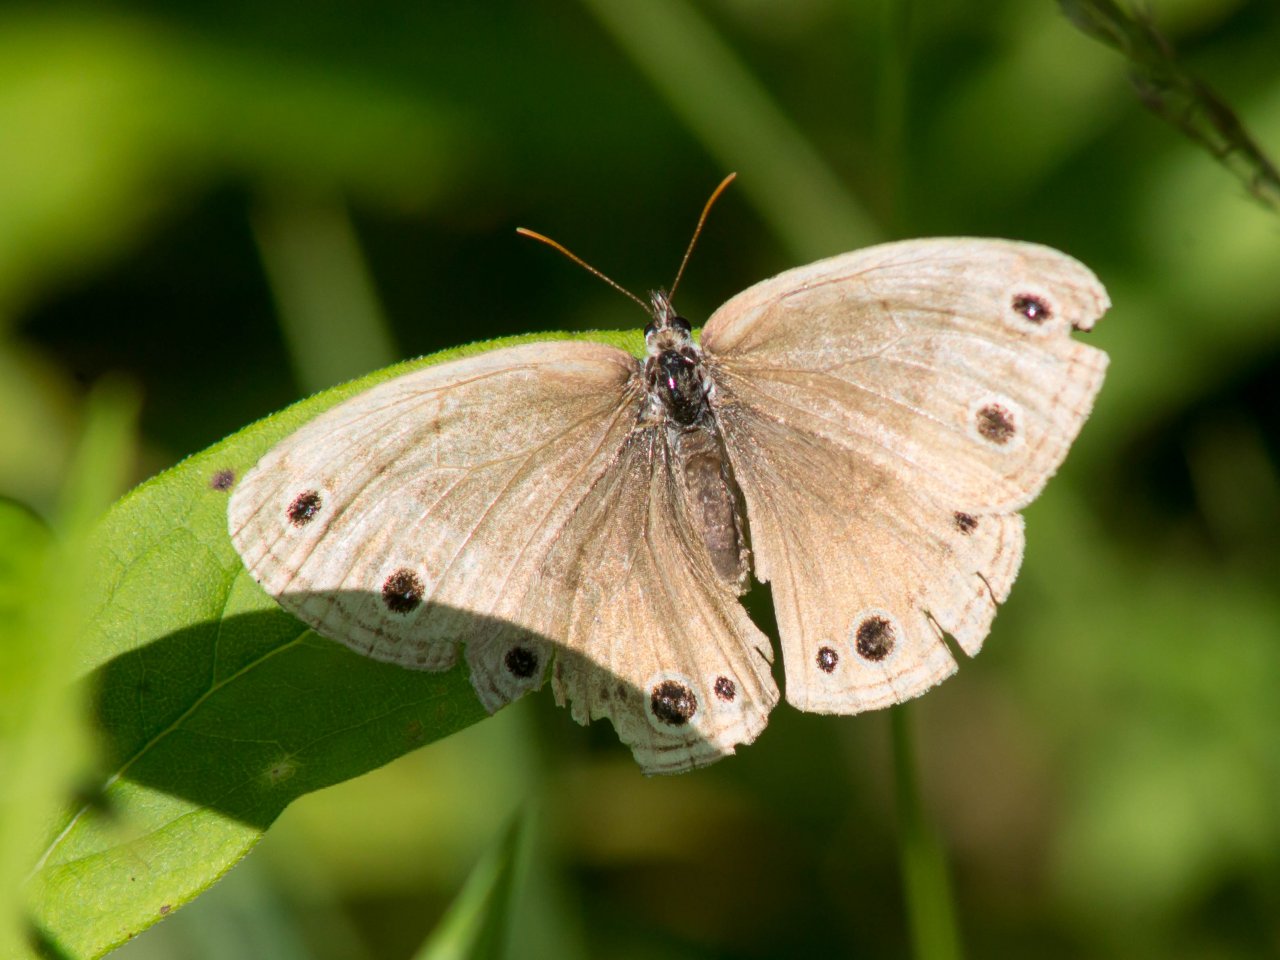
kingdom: Animalia
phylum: Arthropoda
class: Insecta
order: Lepidoptera
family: Nymphalidae
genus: Euptychia
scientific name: Euptychia cymela
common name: Little Wood Satyr
